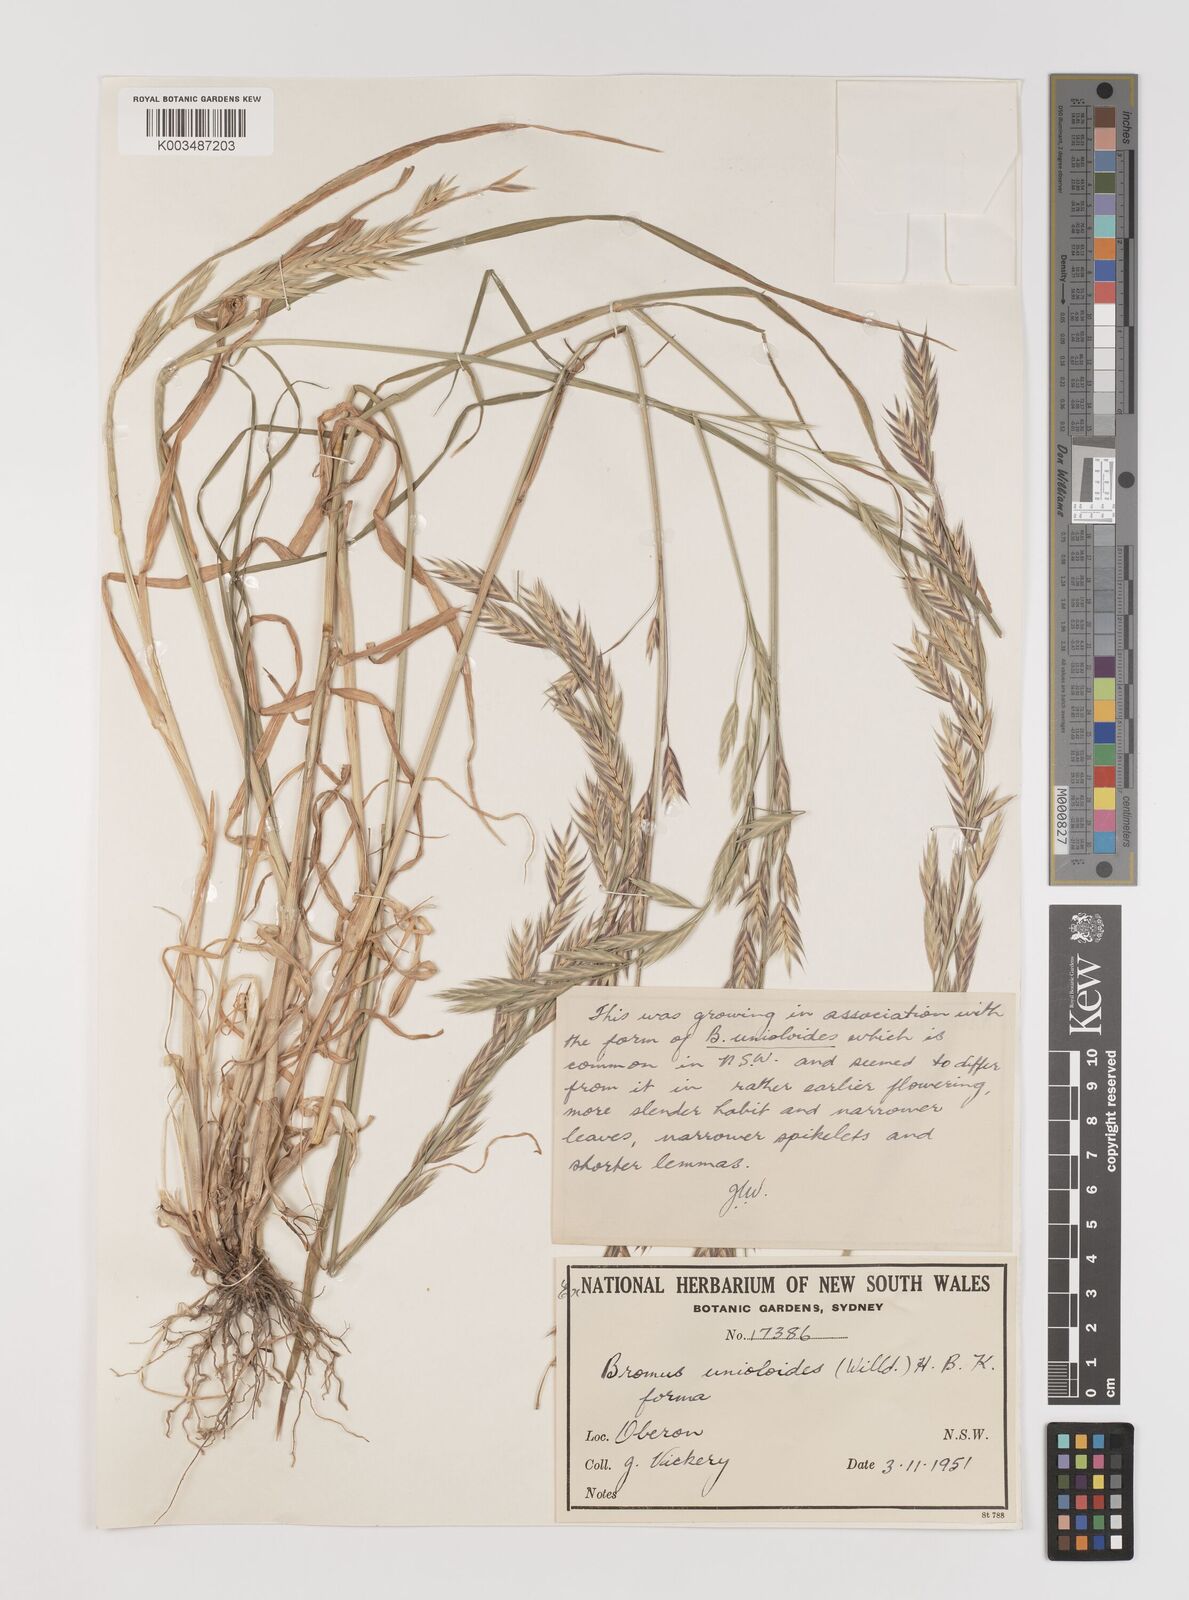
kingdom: Plantae
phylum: Tracheophyta
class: Liliopsida
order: Poales
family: Poaceae
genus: Bromus
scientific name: Bromus
